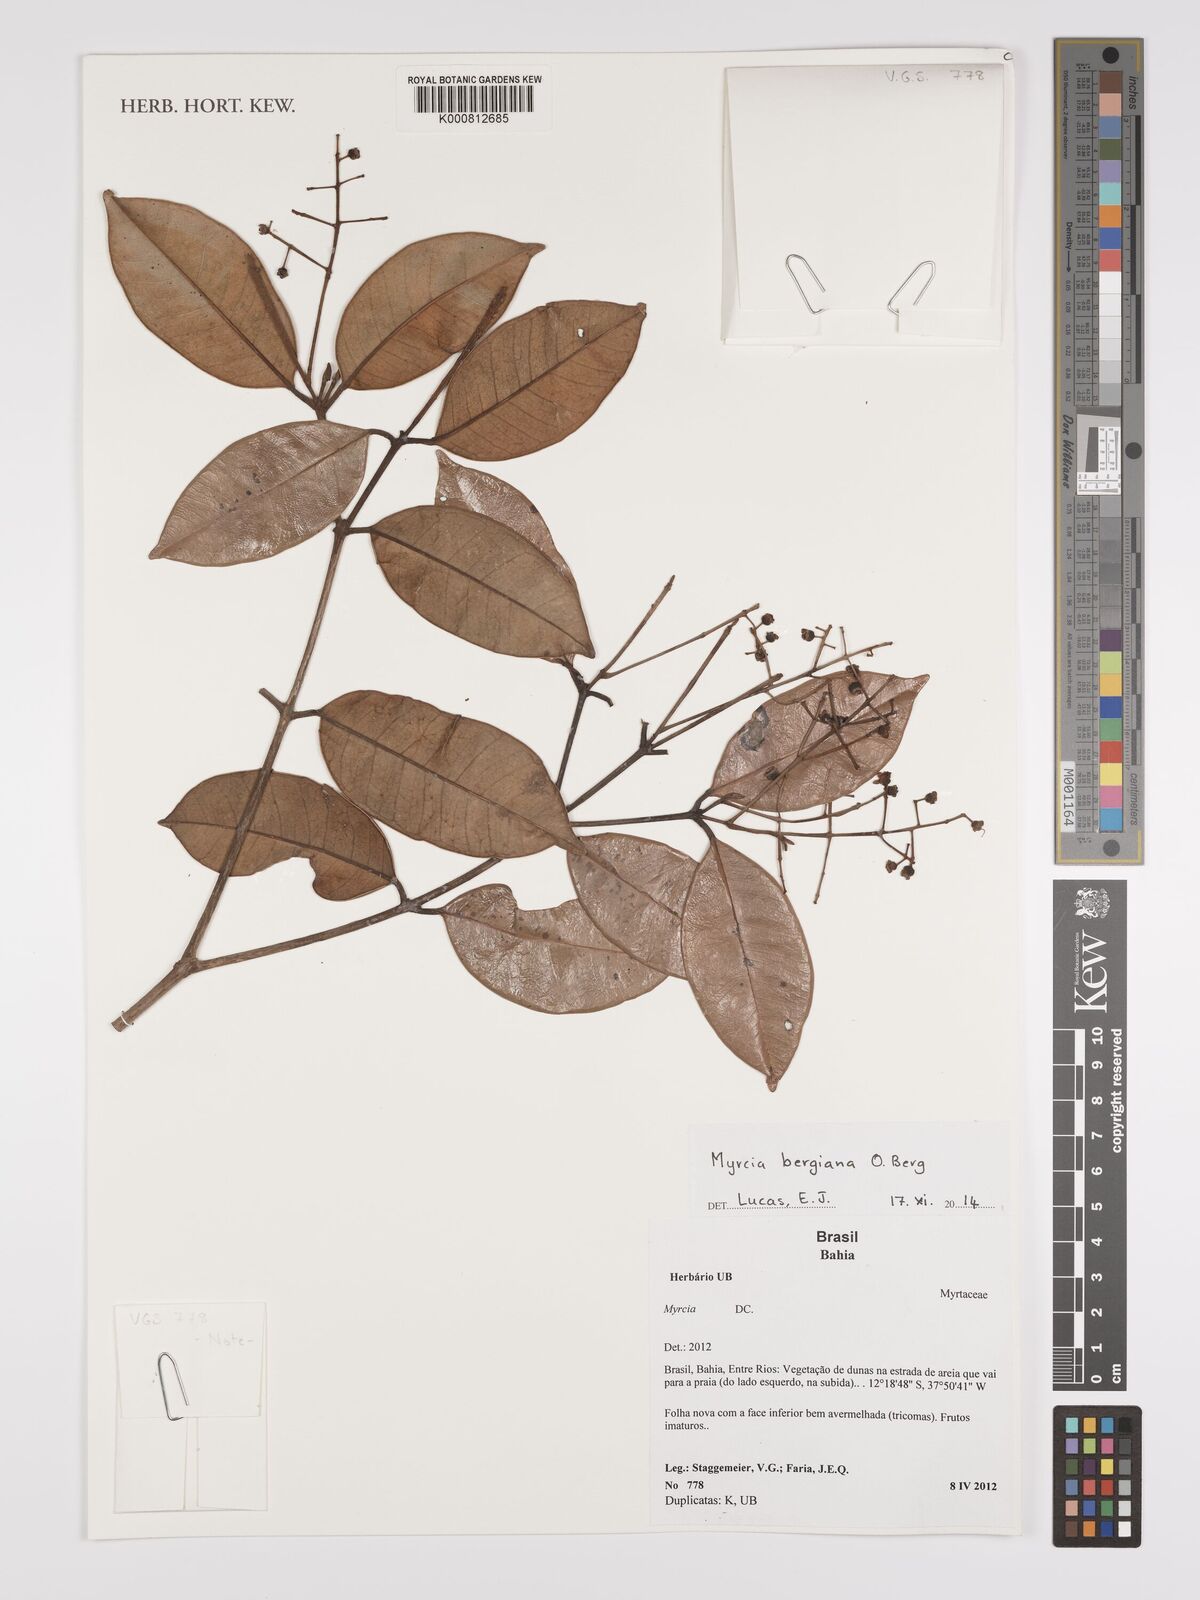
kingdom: Plantae
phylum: Tracheophyta
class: Magnoliopsida
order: Myrtales
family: Myrtaceae
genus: Myrcia
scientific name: Myrcia bergiana
